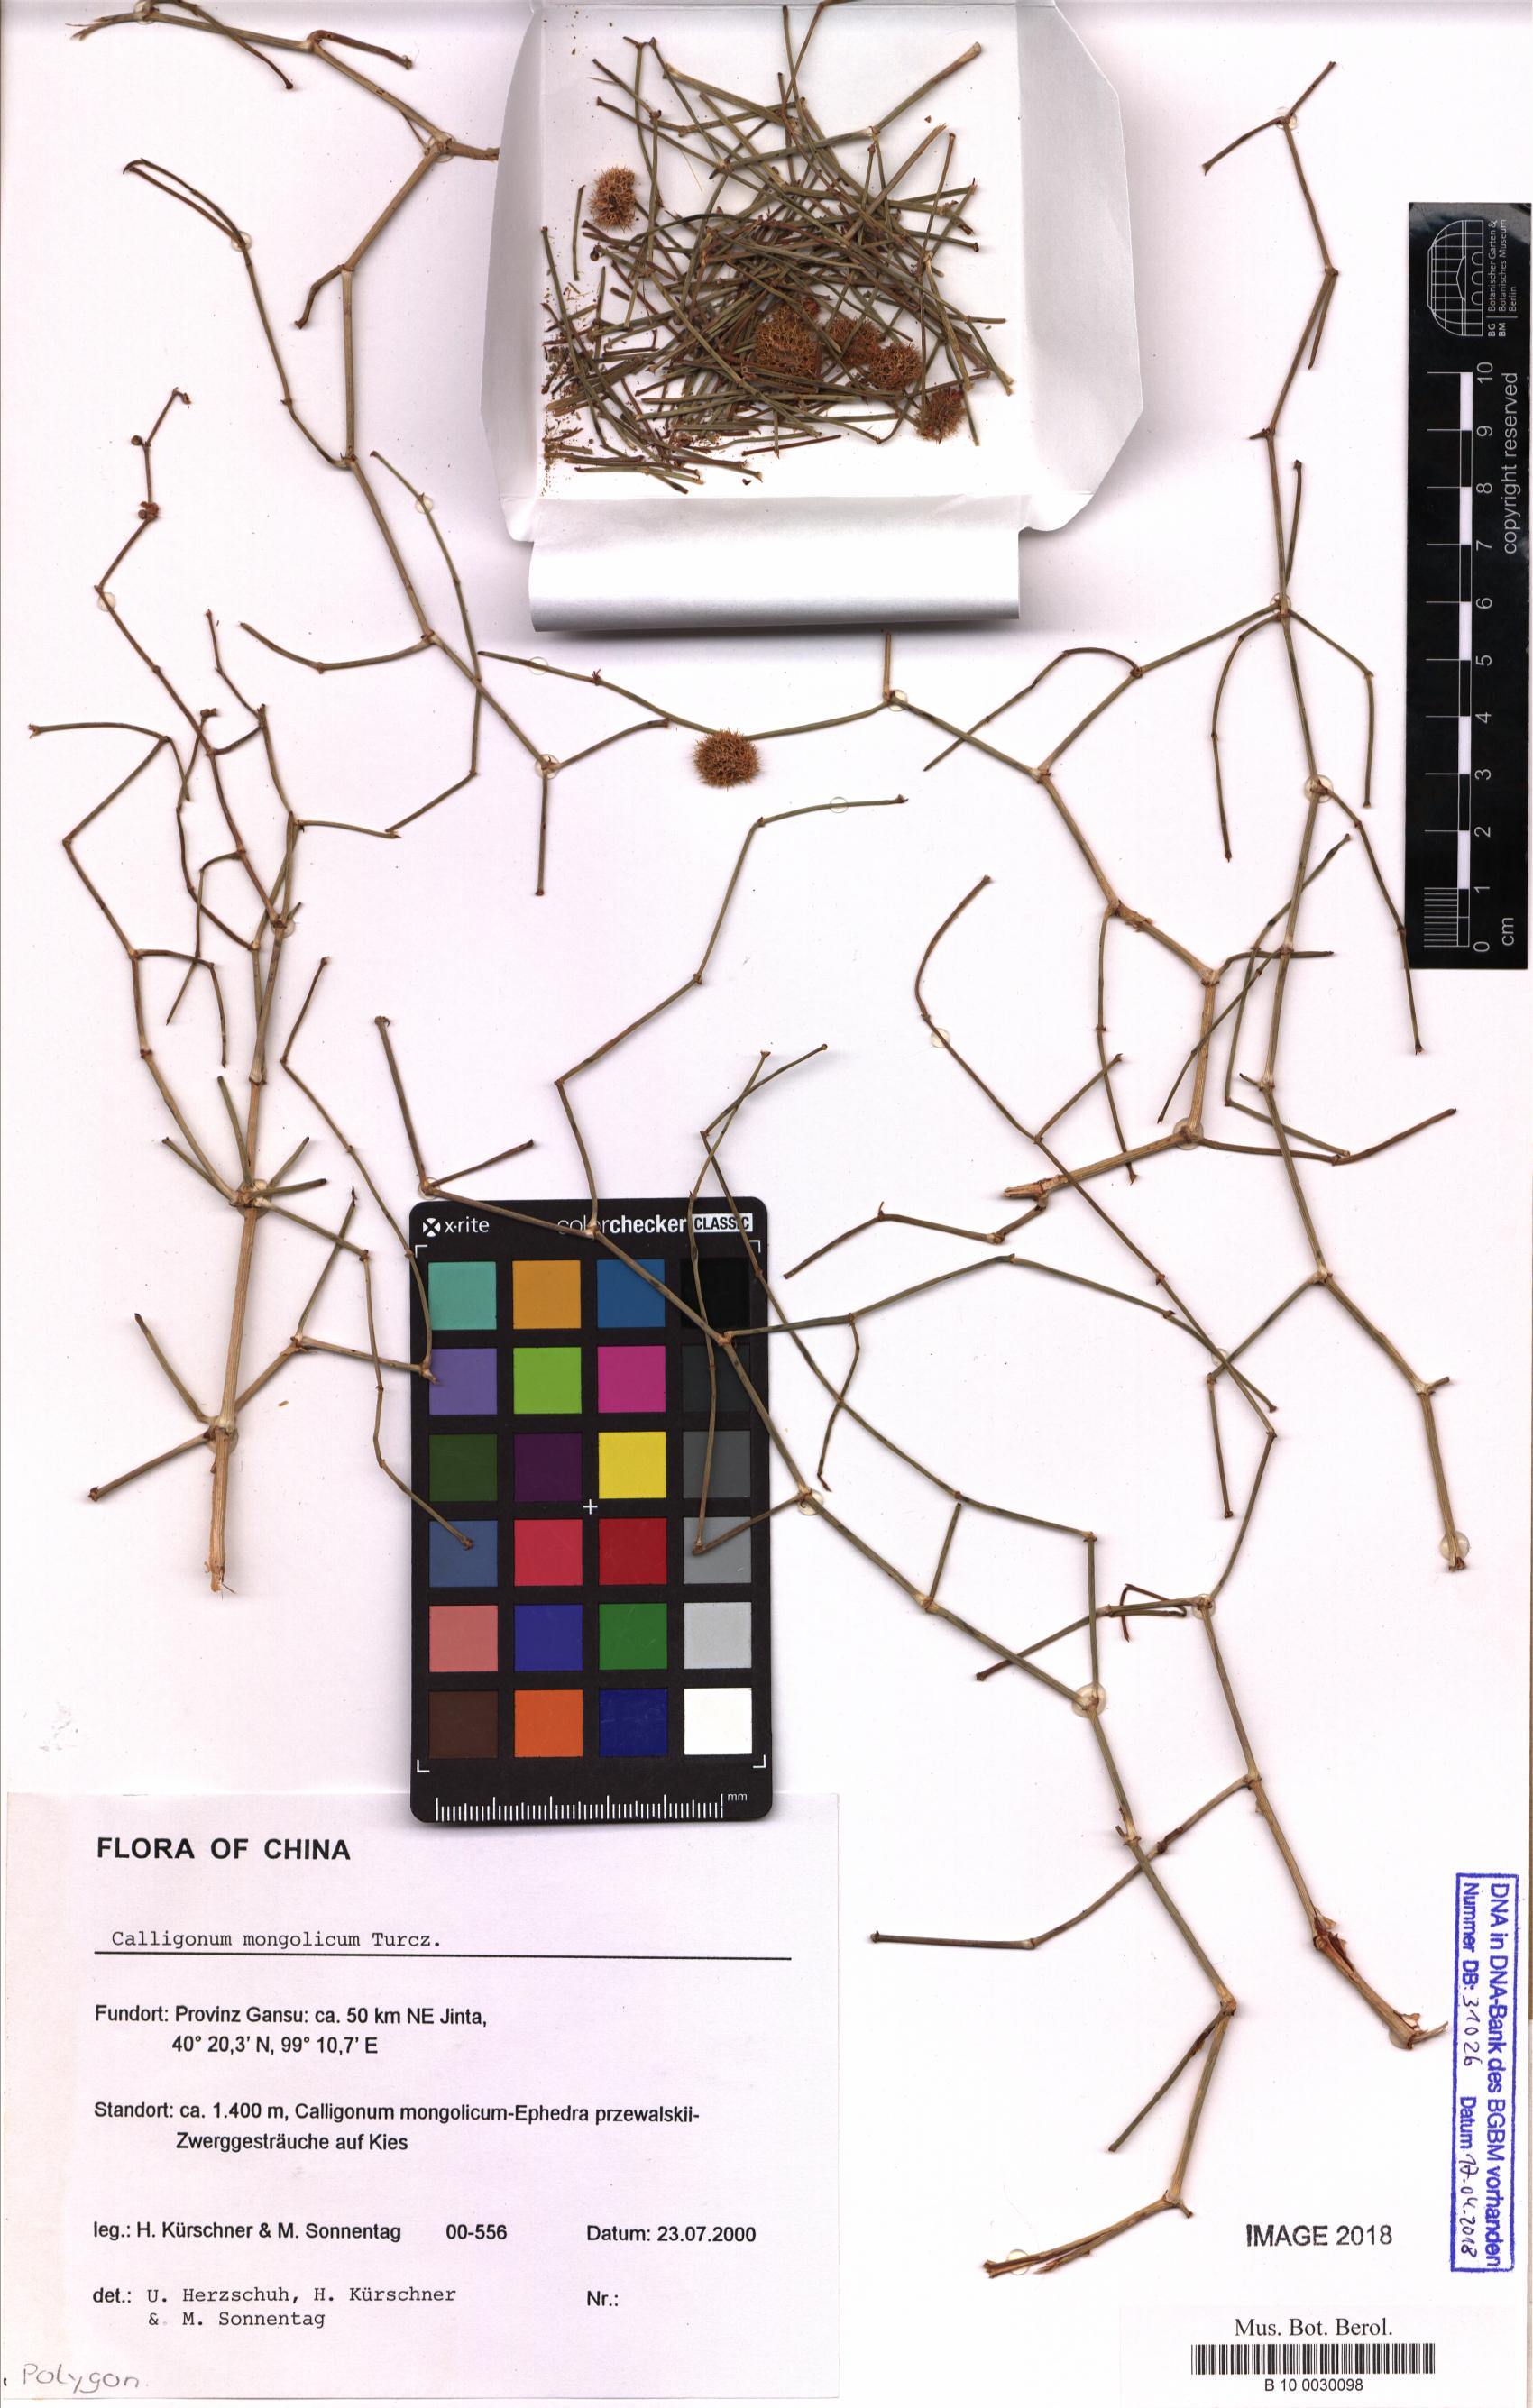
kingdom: Plantae
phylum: Tracheophyta
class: Magnoliopsida
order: Caryophyllales
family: Polygonaceae
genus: Calligonum
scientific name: Calligonum mongolicum
